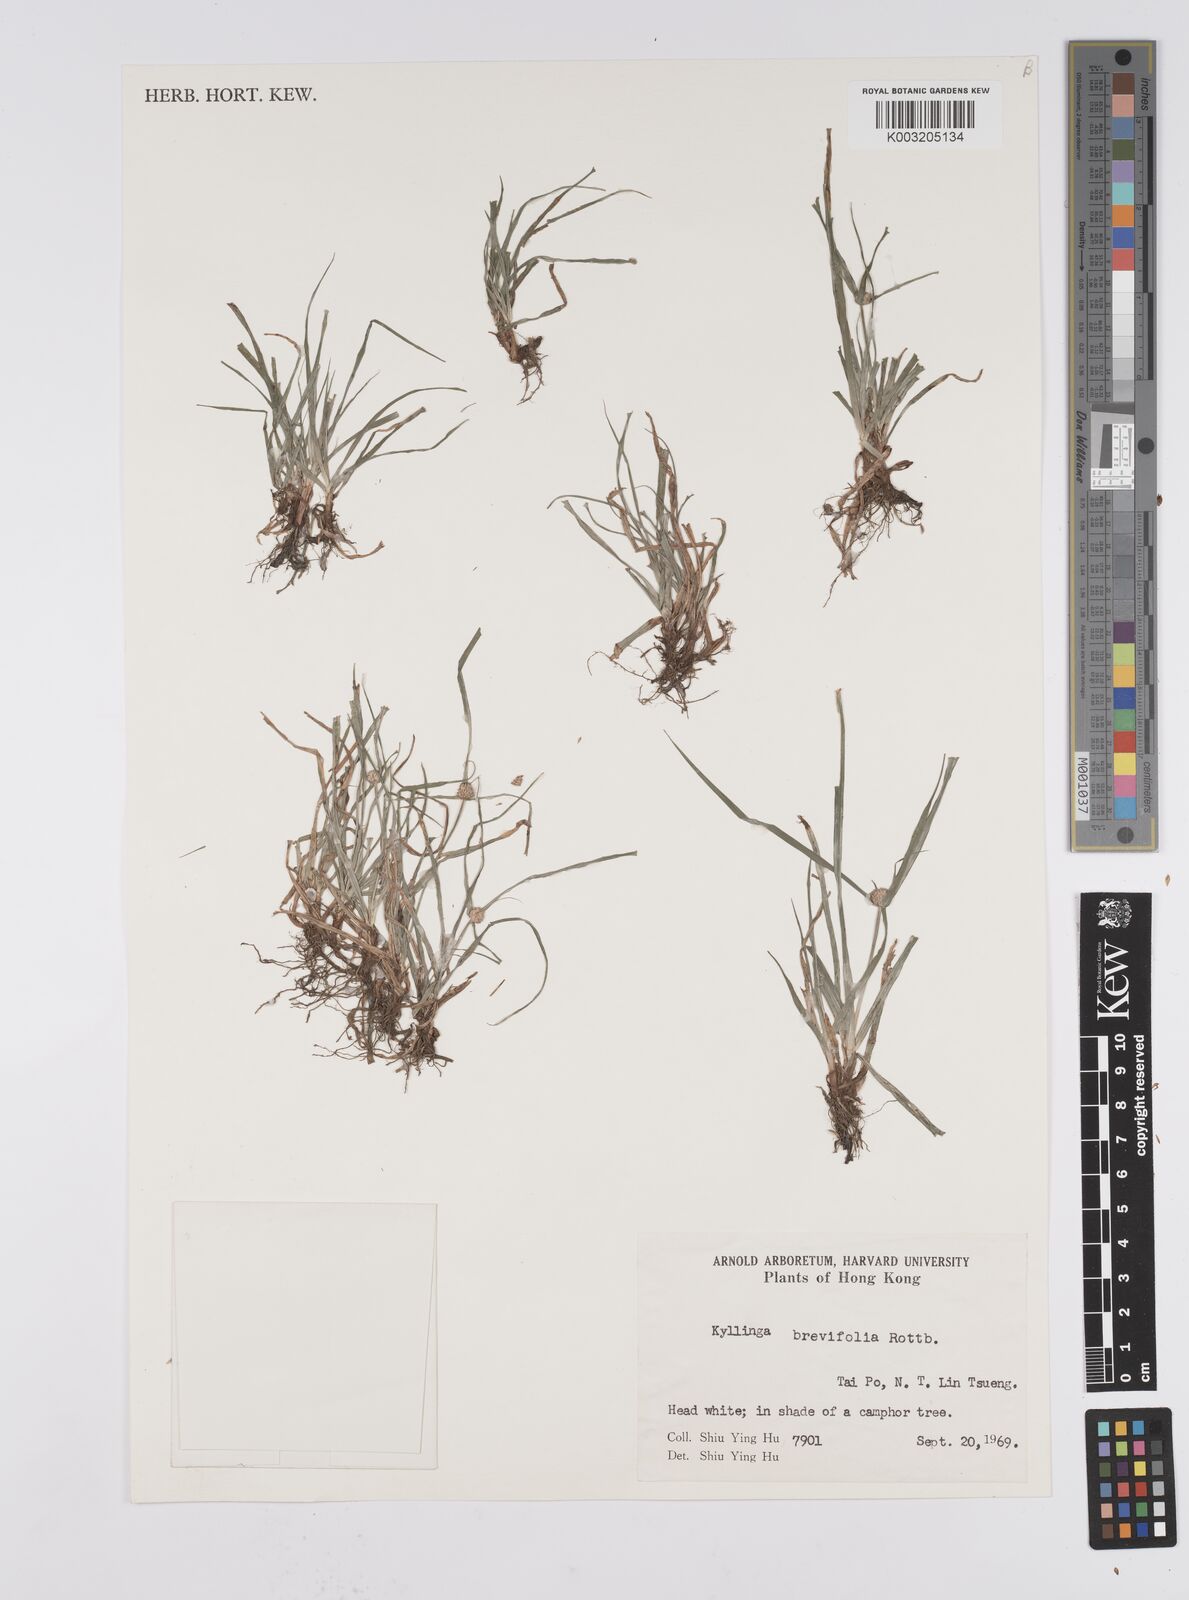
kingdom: Plantae
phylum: Tracheophyta
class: Liliopsida
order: Poales
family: Cyperaceae
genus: Cyperus
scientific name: Cyperus brevifolius
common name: Globe kyllinga
